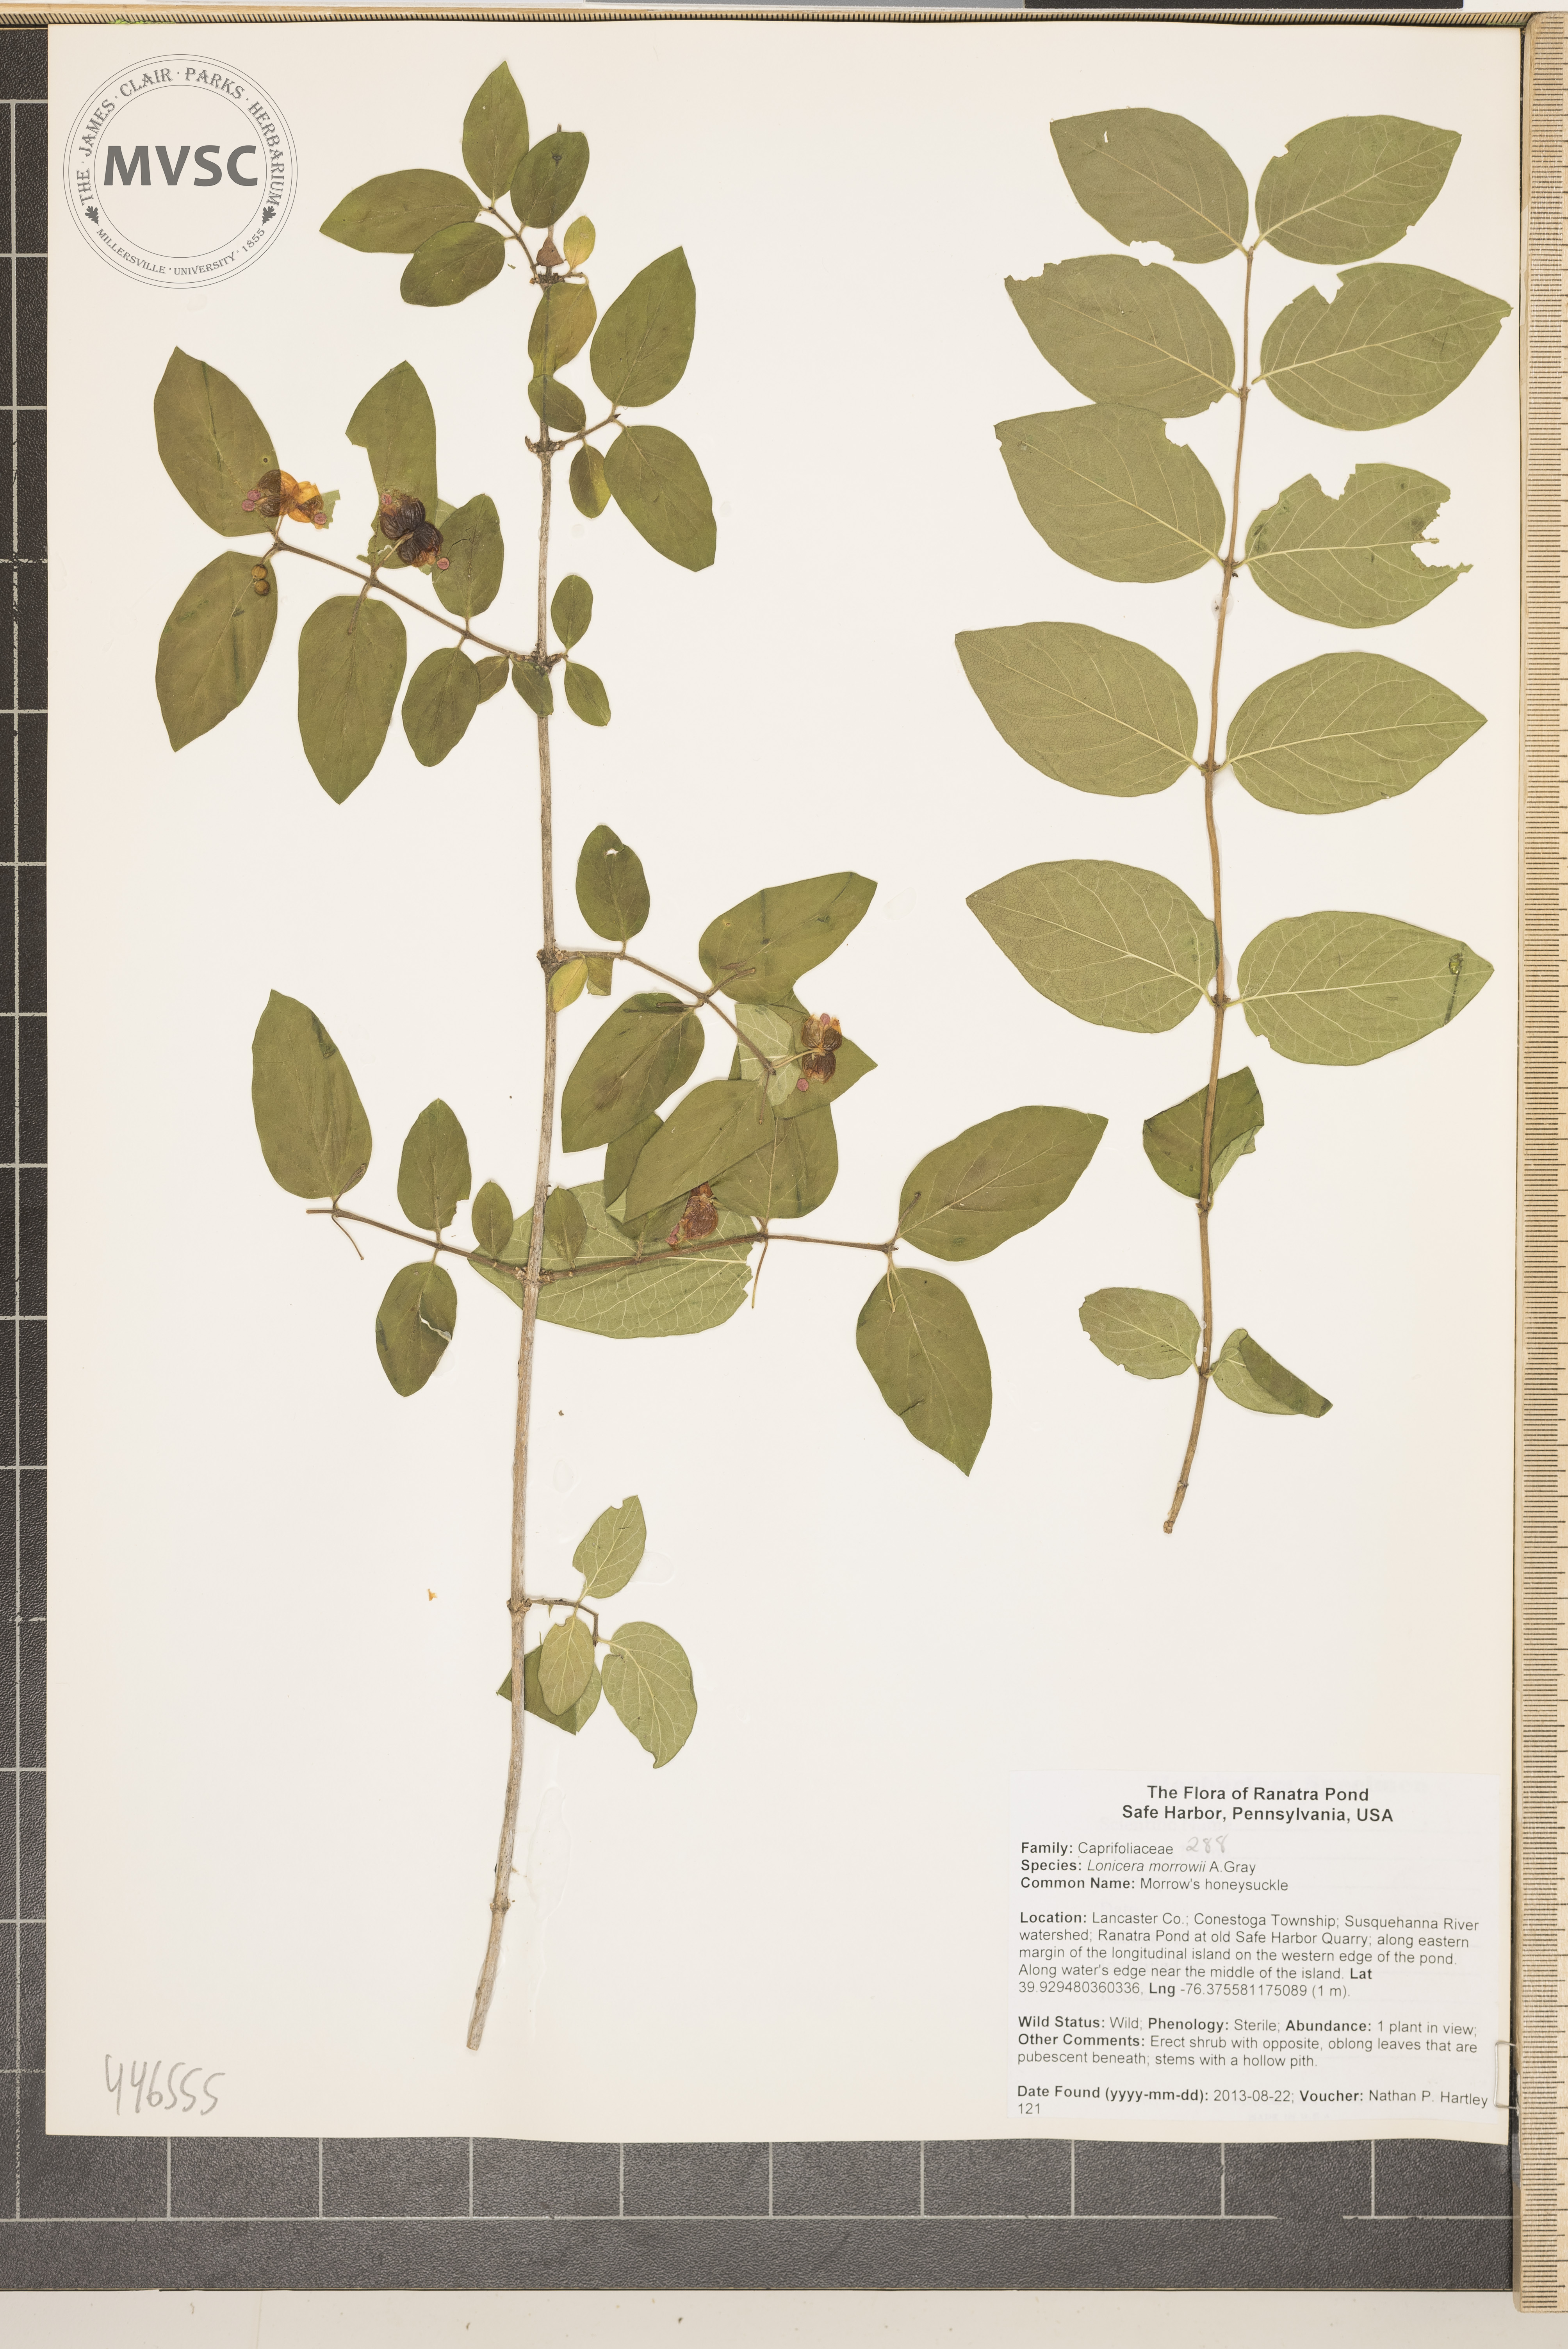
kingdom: Plantae
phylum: Tracheophyta
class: Magnoliopsida
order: Dipsacales
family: Caprifoliaceae
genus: Lonicera
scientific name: Lonicera morrowii
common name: Morrow's honeysuckle
